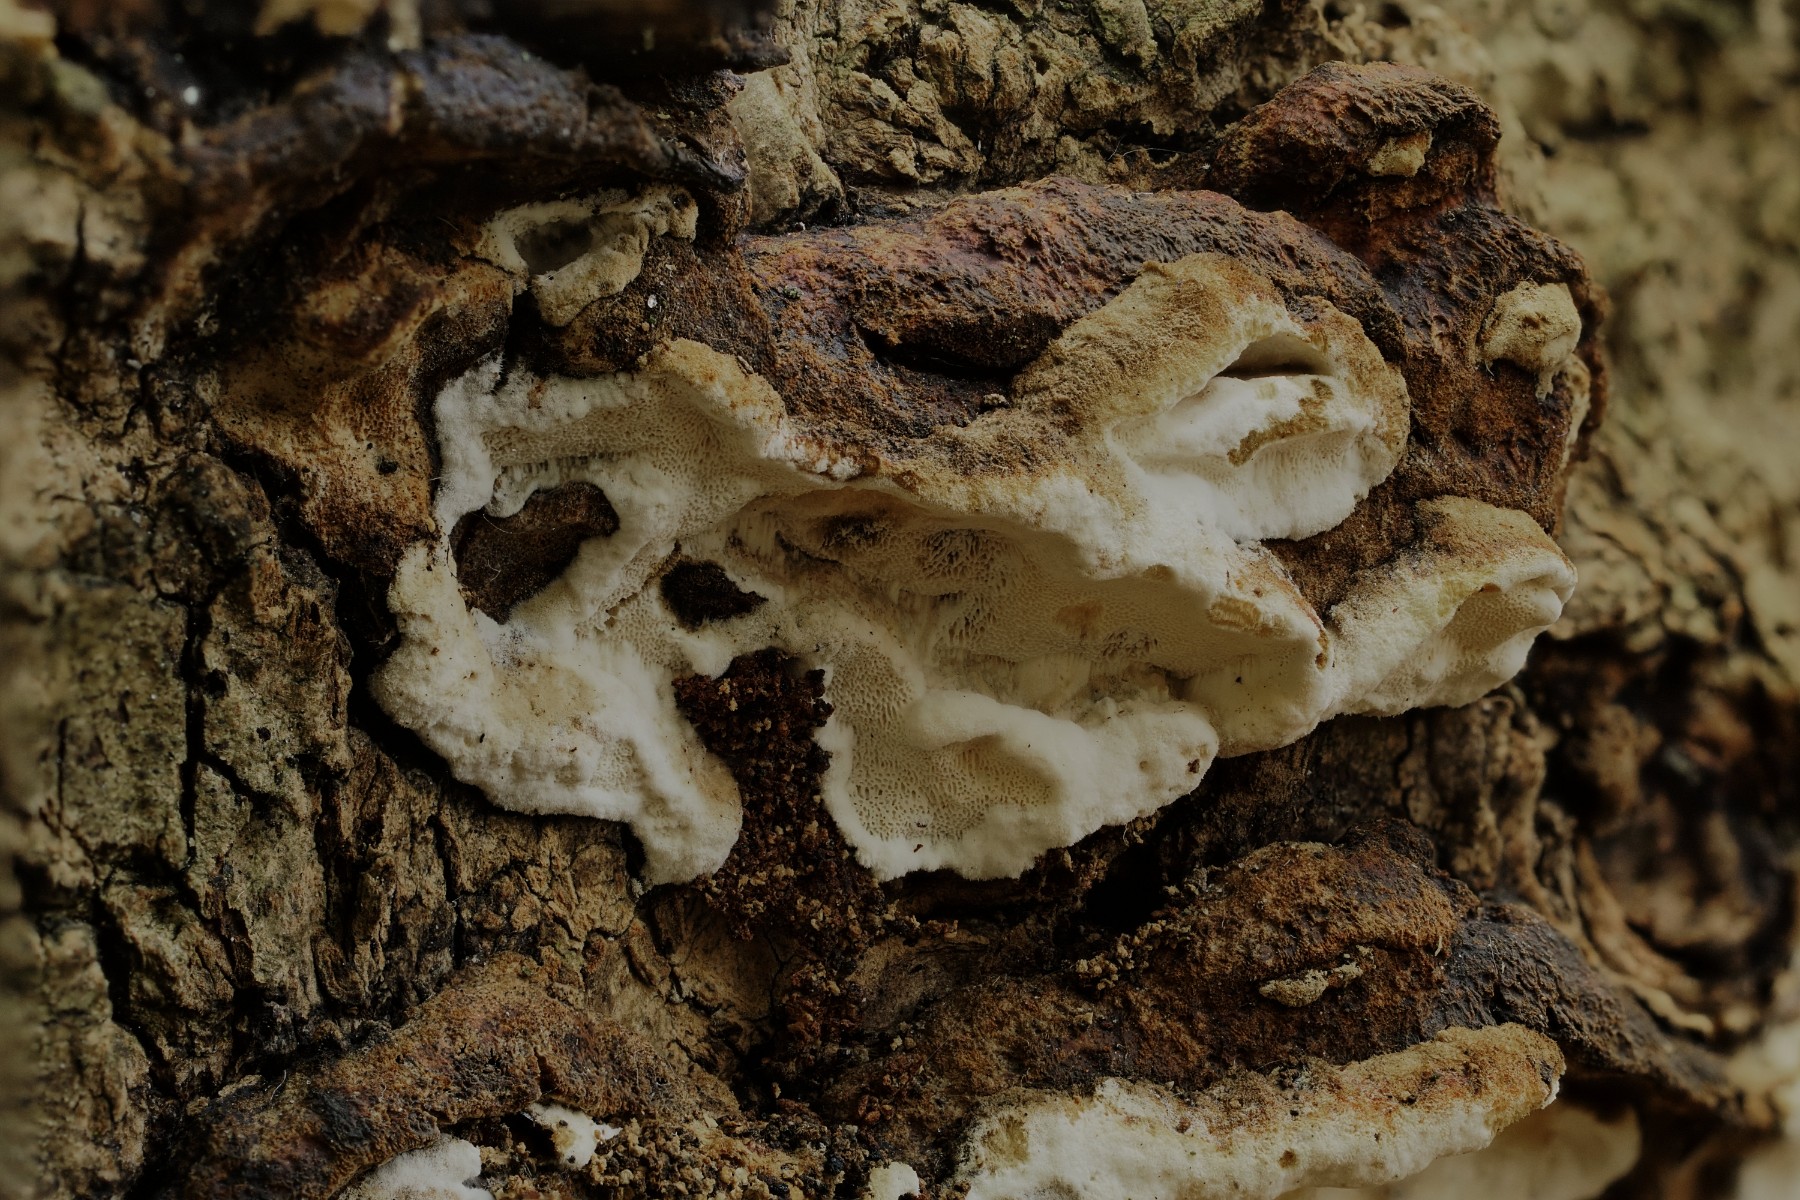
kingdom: Fungi
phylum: Basidiomycota
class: Agaricomycetes
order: Polyporales
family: Incrustoporiaceae
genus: Skeletocutis
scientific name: Skeletocutis nemoralis
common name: stor krystalporesvamp
